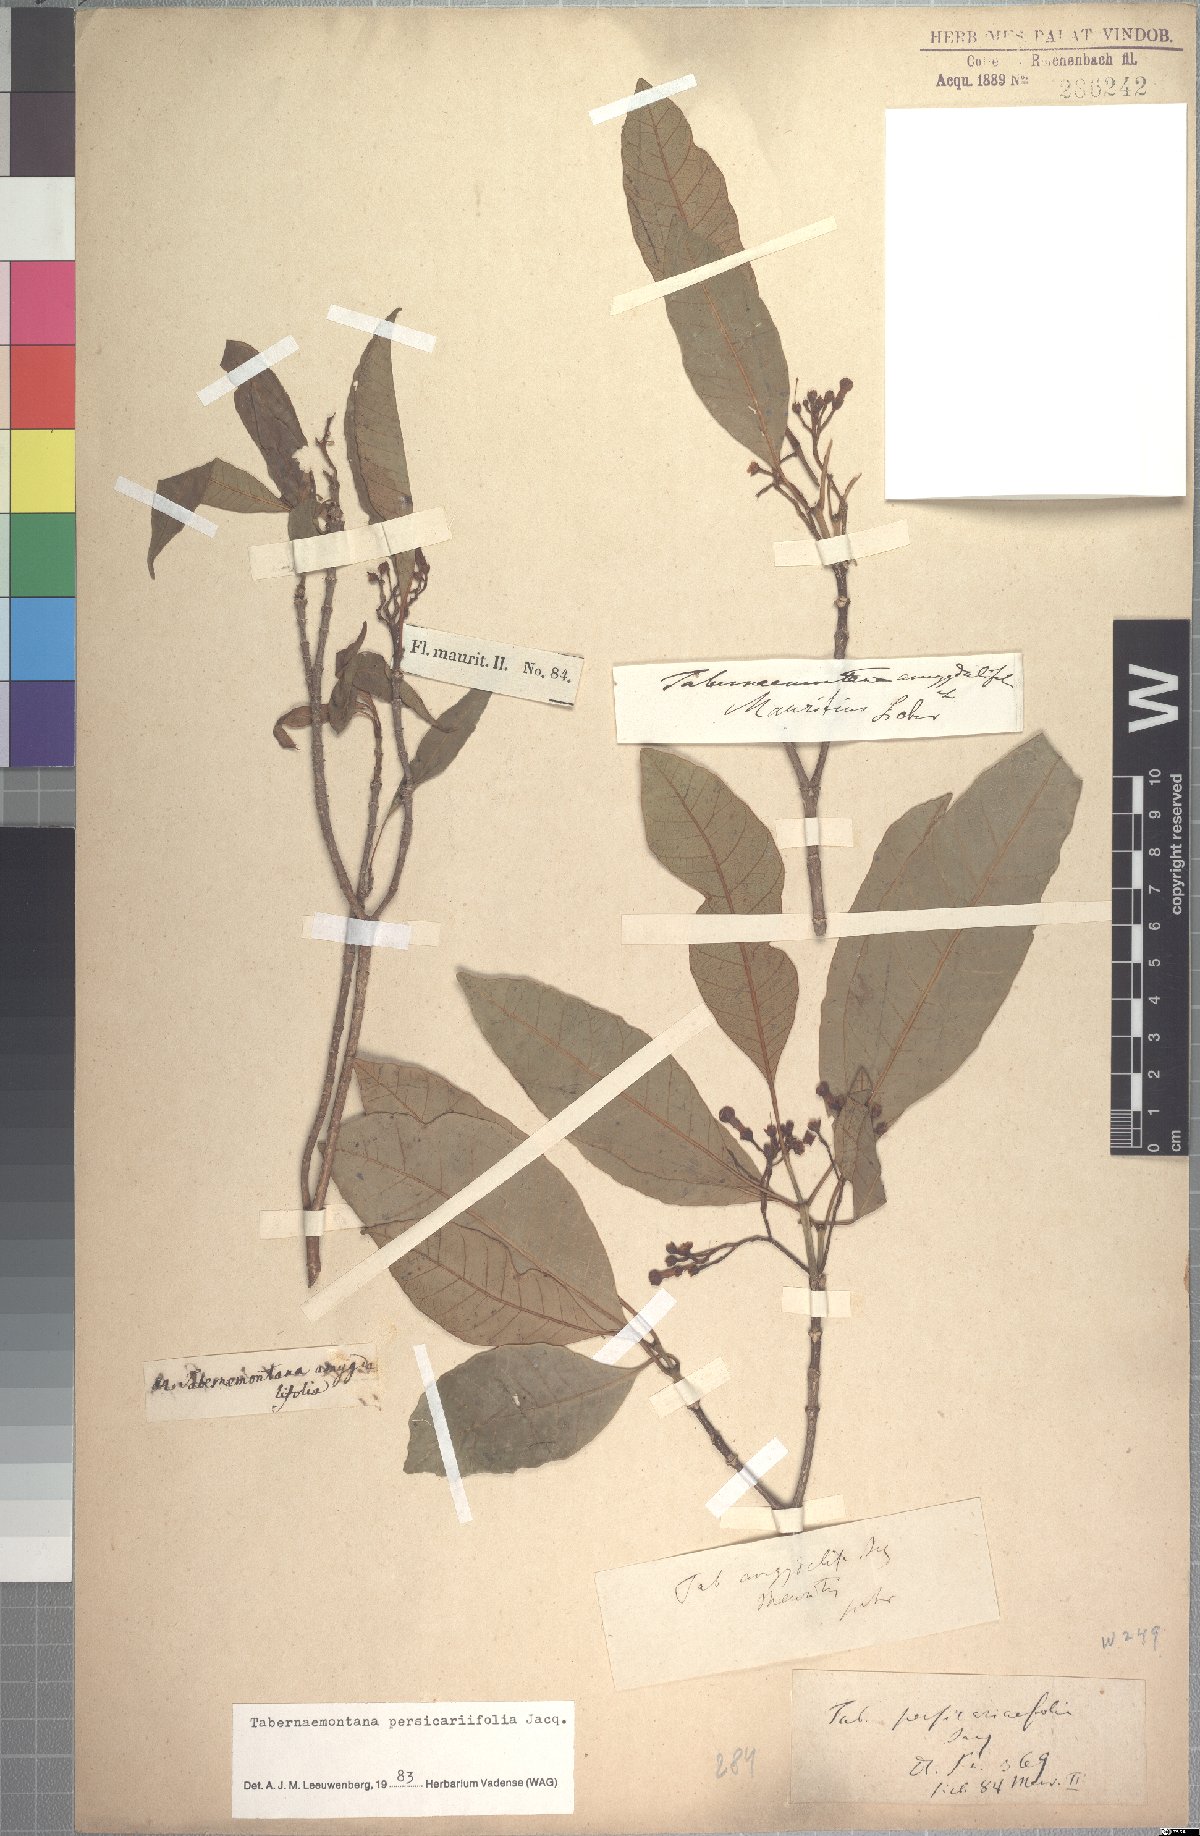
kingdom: Plantae
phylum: Tracheophyta
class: Magnoliopsida
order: Gentianales
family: Apocynaceae
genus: Tabernaemontana
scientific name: Tabernaemontana persicariifolia
